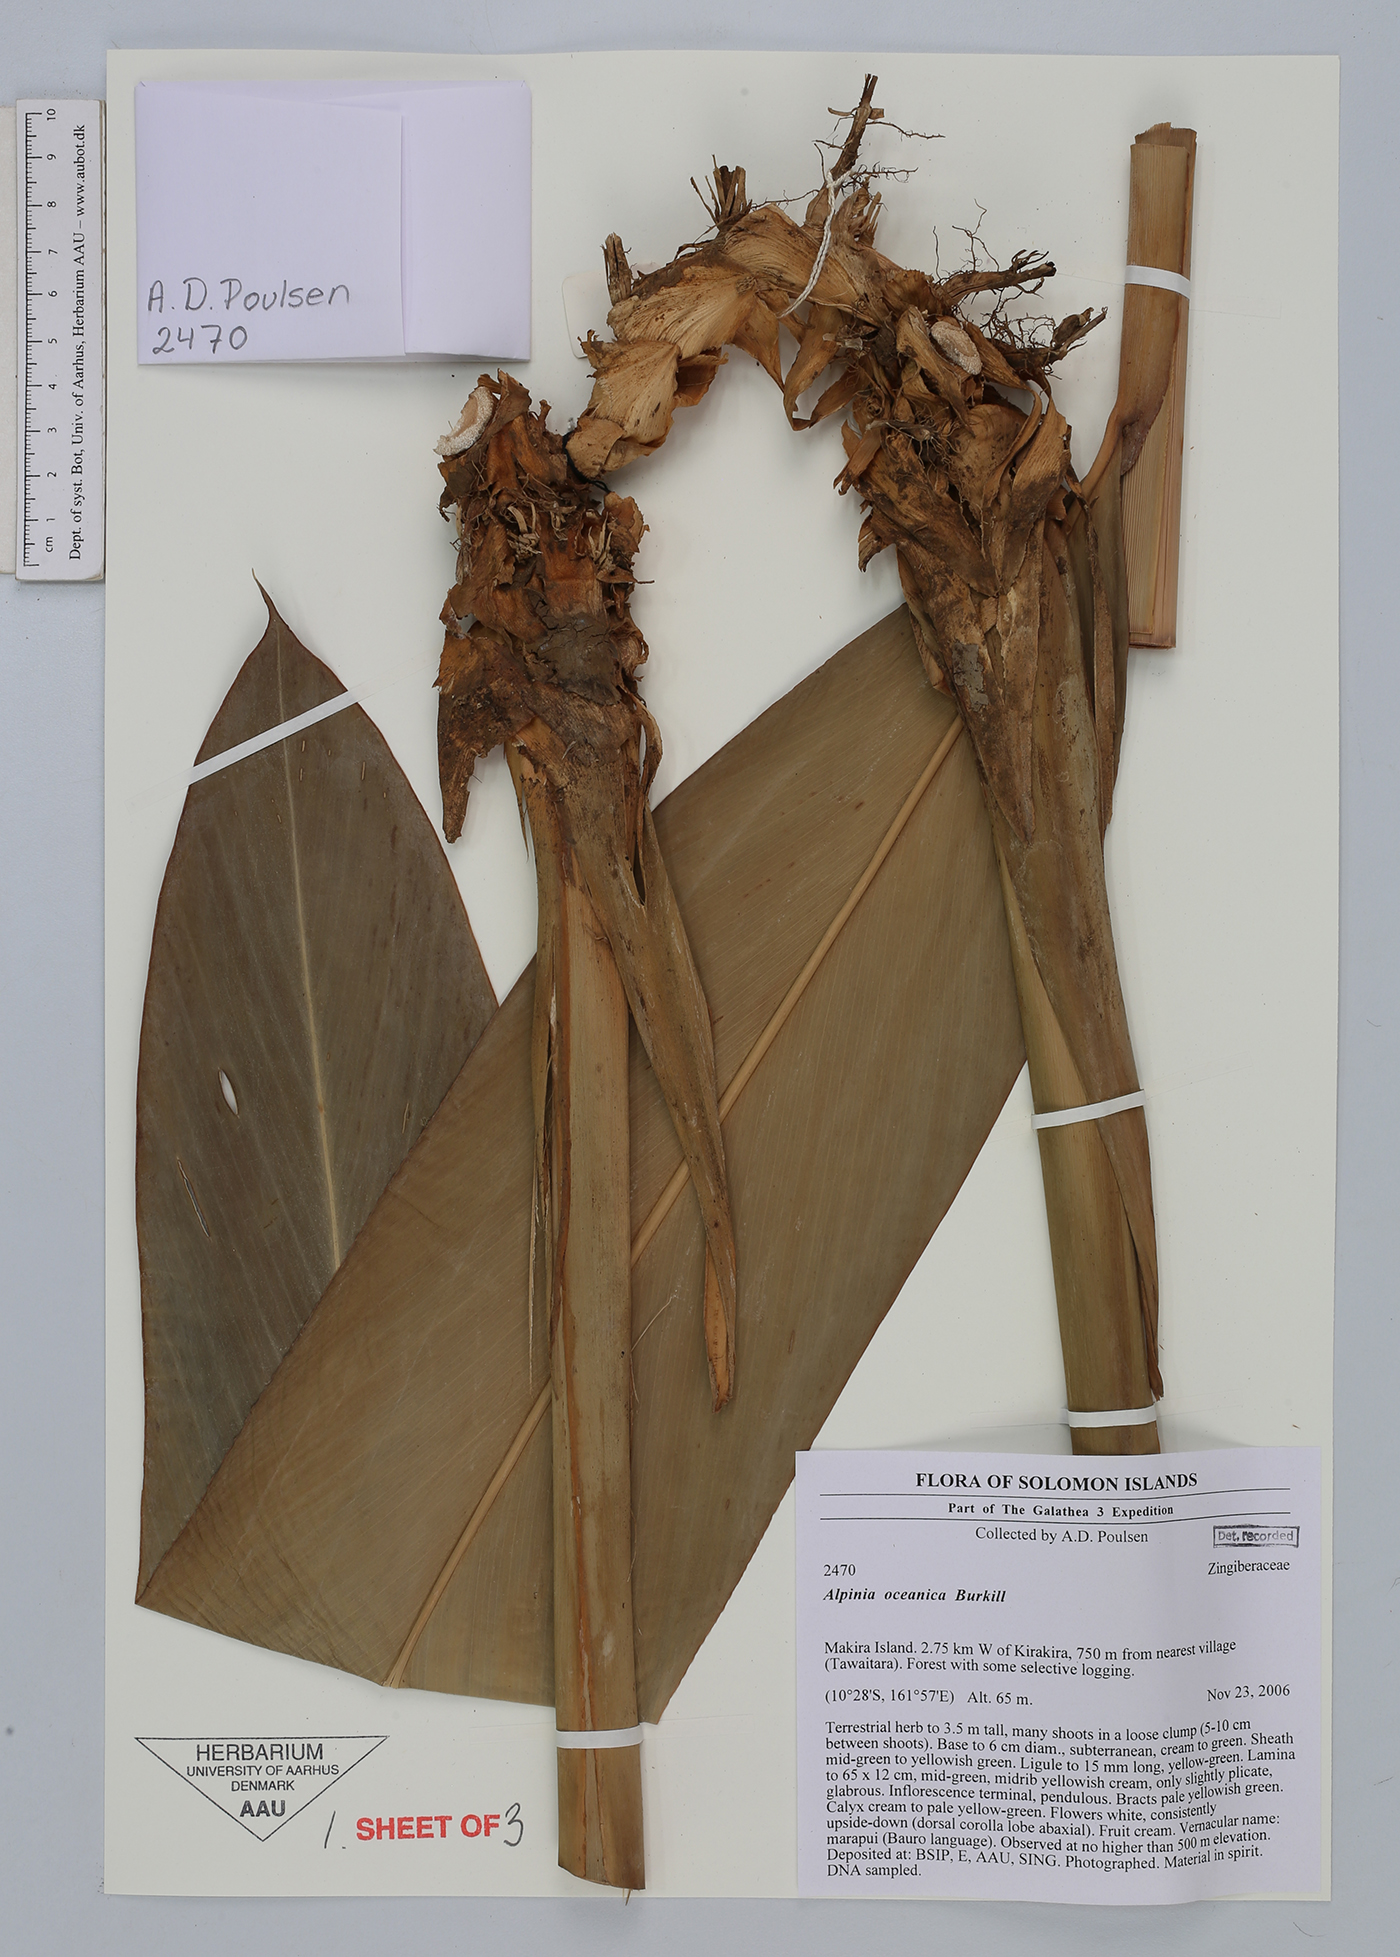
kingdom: Plantae
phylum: Tracheophyta
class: Liliopsida
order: Zingiberales
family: Zingiberaceae
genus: Alpinia
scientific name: Alpinia oceanica
